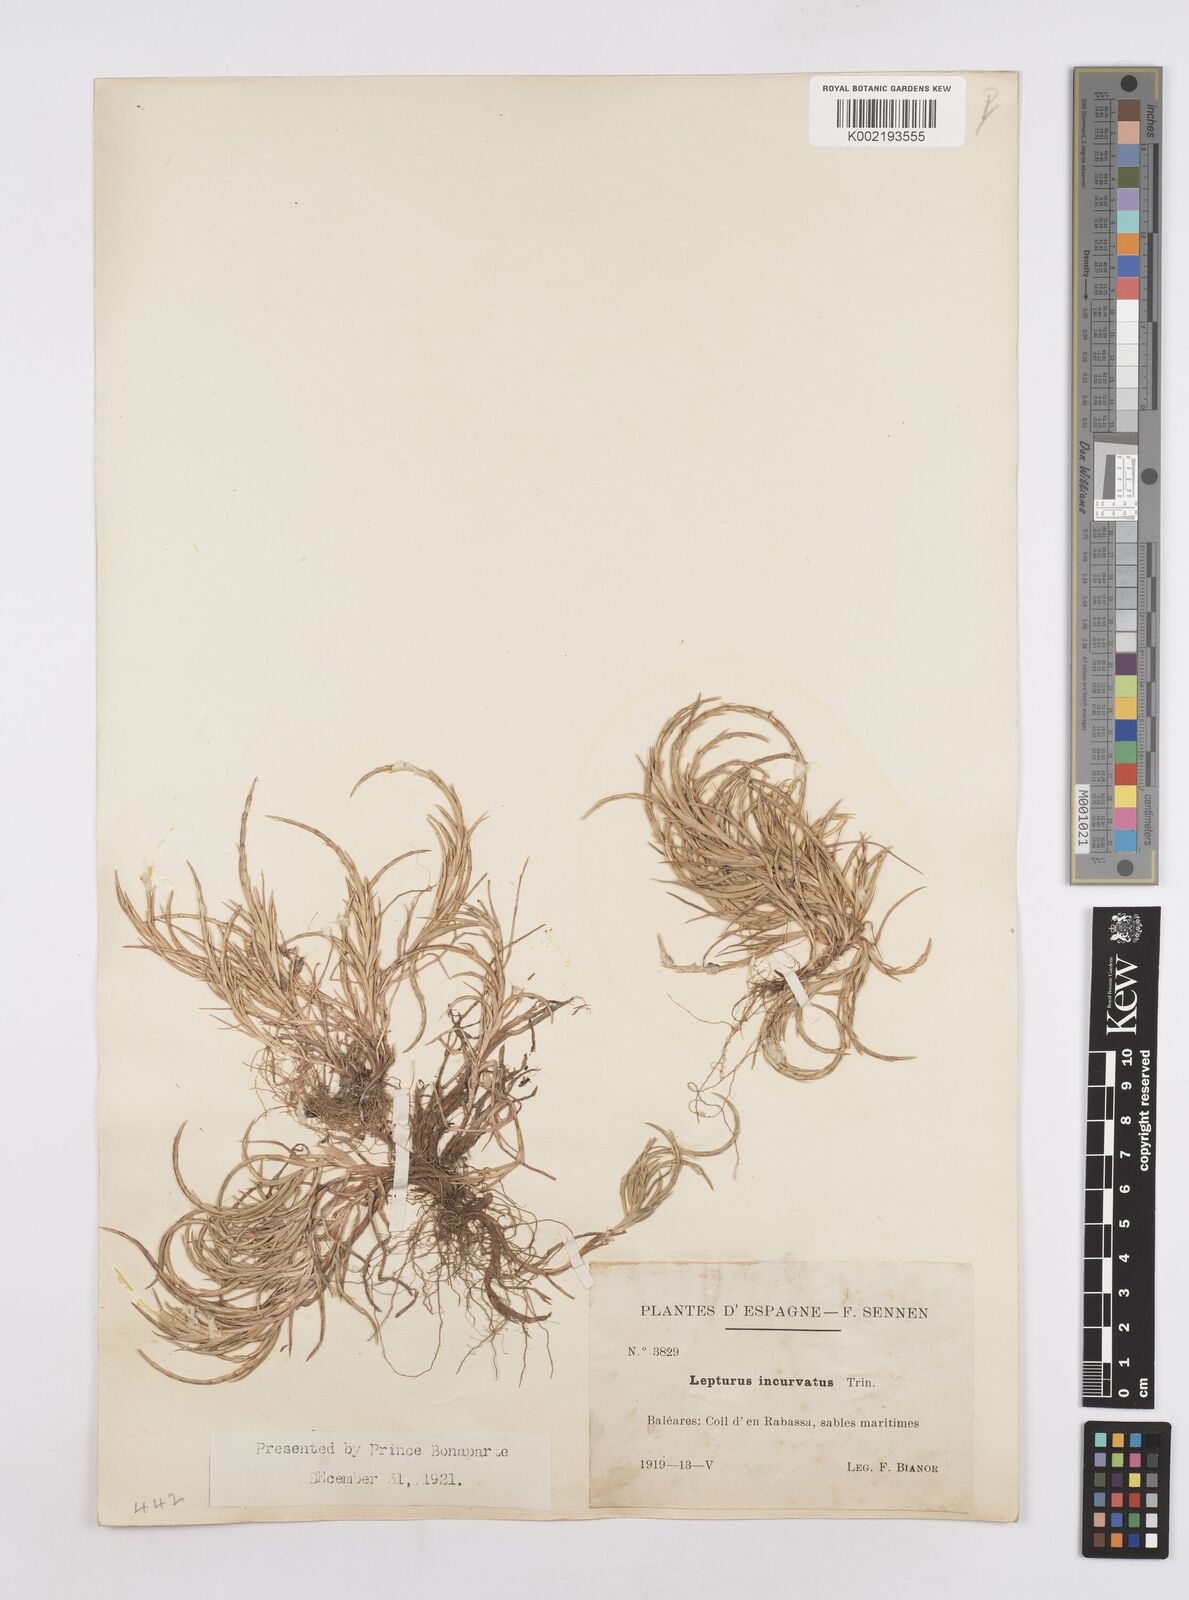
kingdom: Plantae
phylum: Tracheophyta
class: Liliopsida
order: Poales
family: Poaceae
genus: Parapholis
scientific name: Parapholis incurva
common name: Curved sicklegrass
